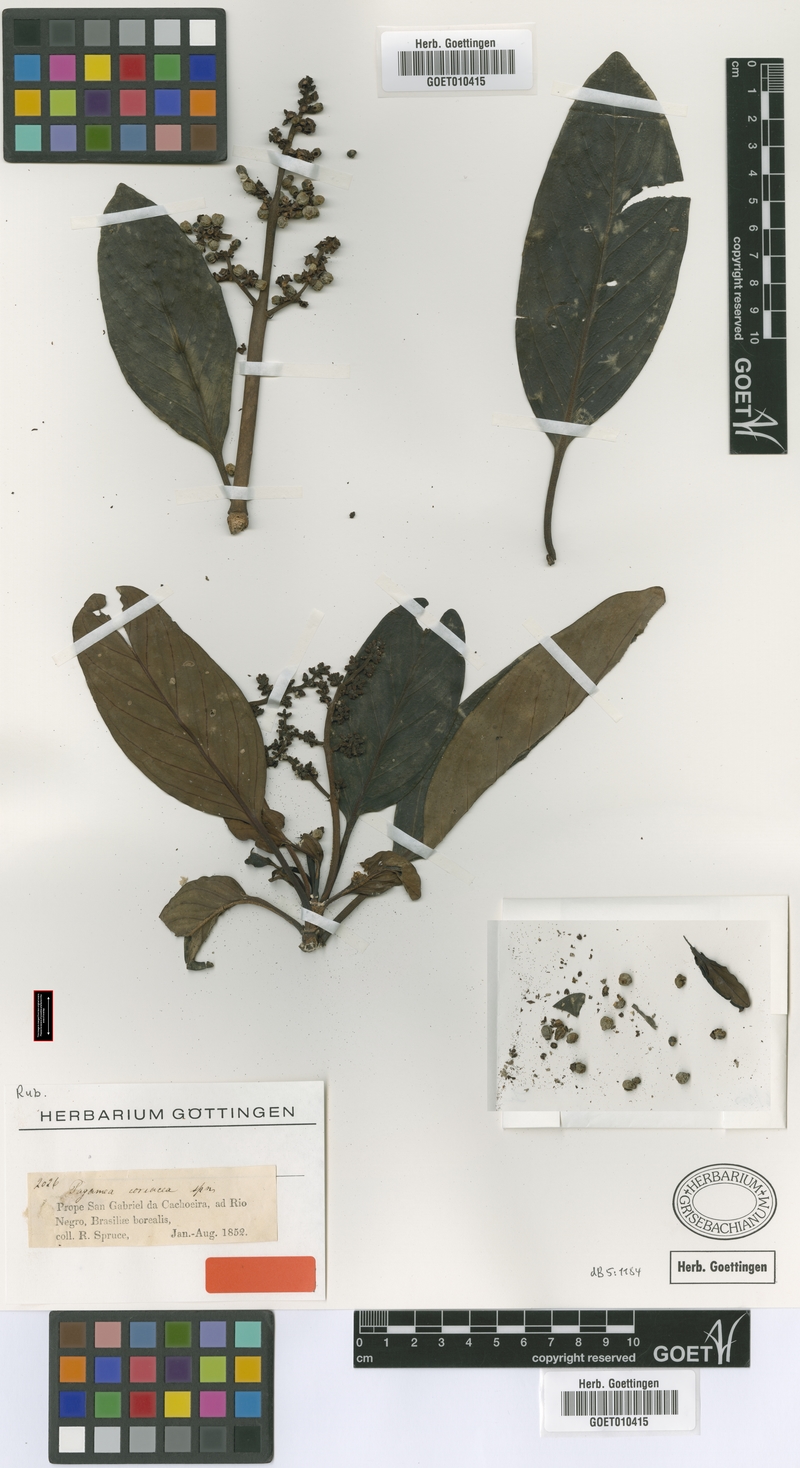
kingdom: Plantae
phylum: Tracheophyta
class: Magnoliopsida
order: Gentianales
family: Rubiaceae
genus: Pagamea
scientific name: Pagamea coriacea
